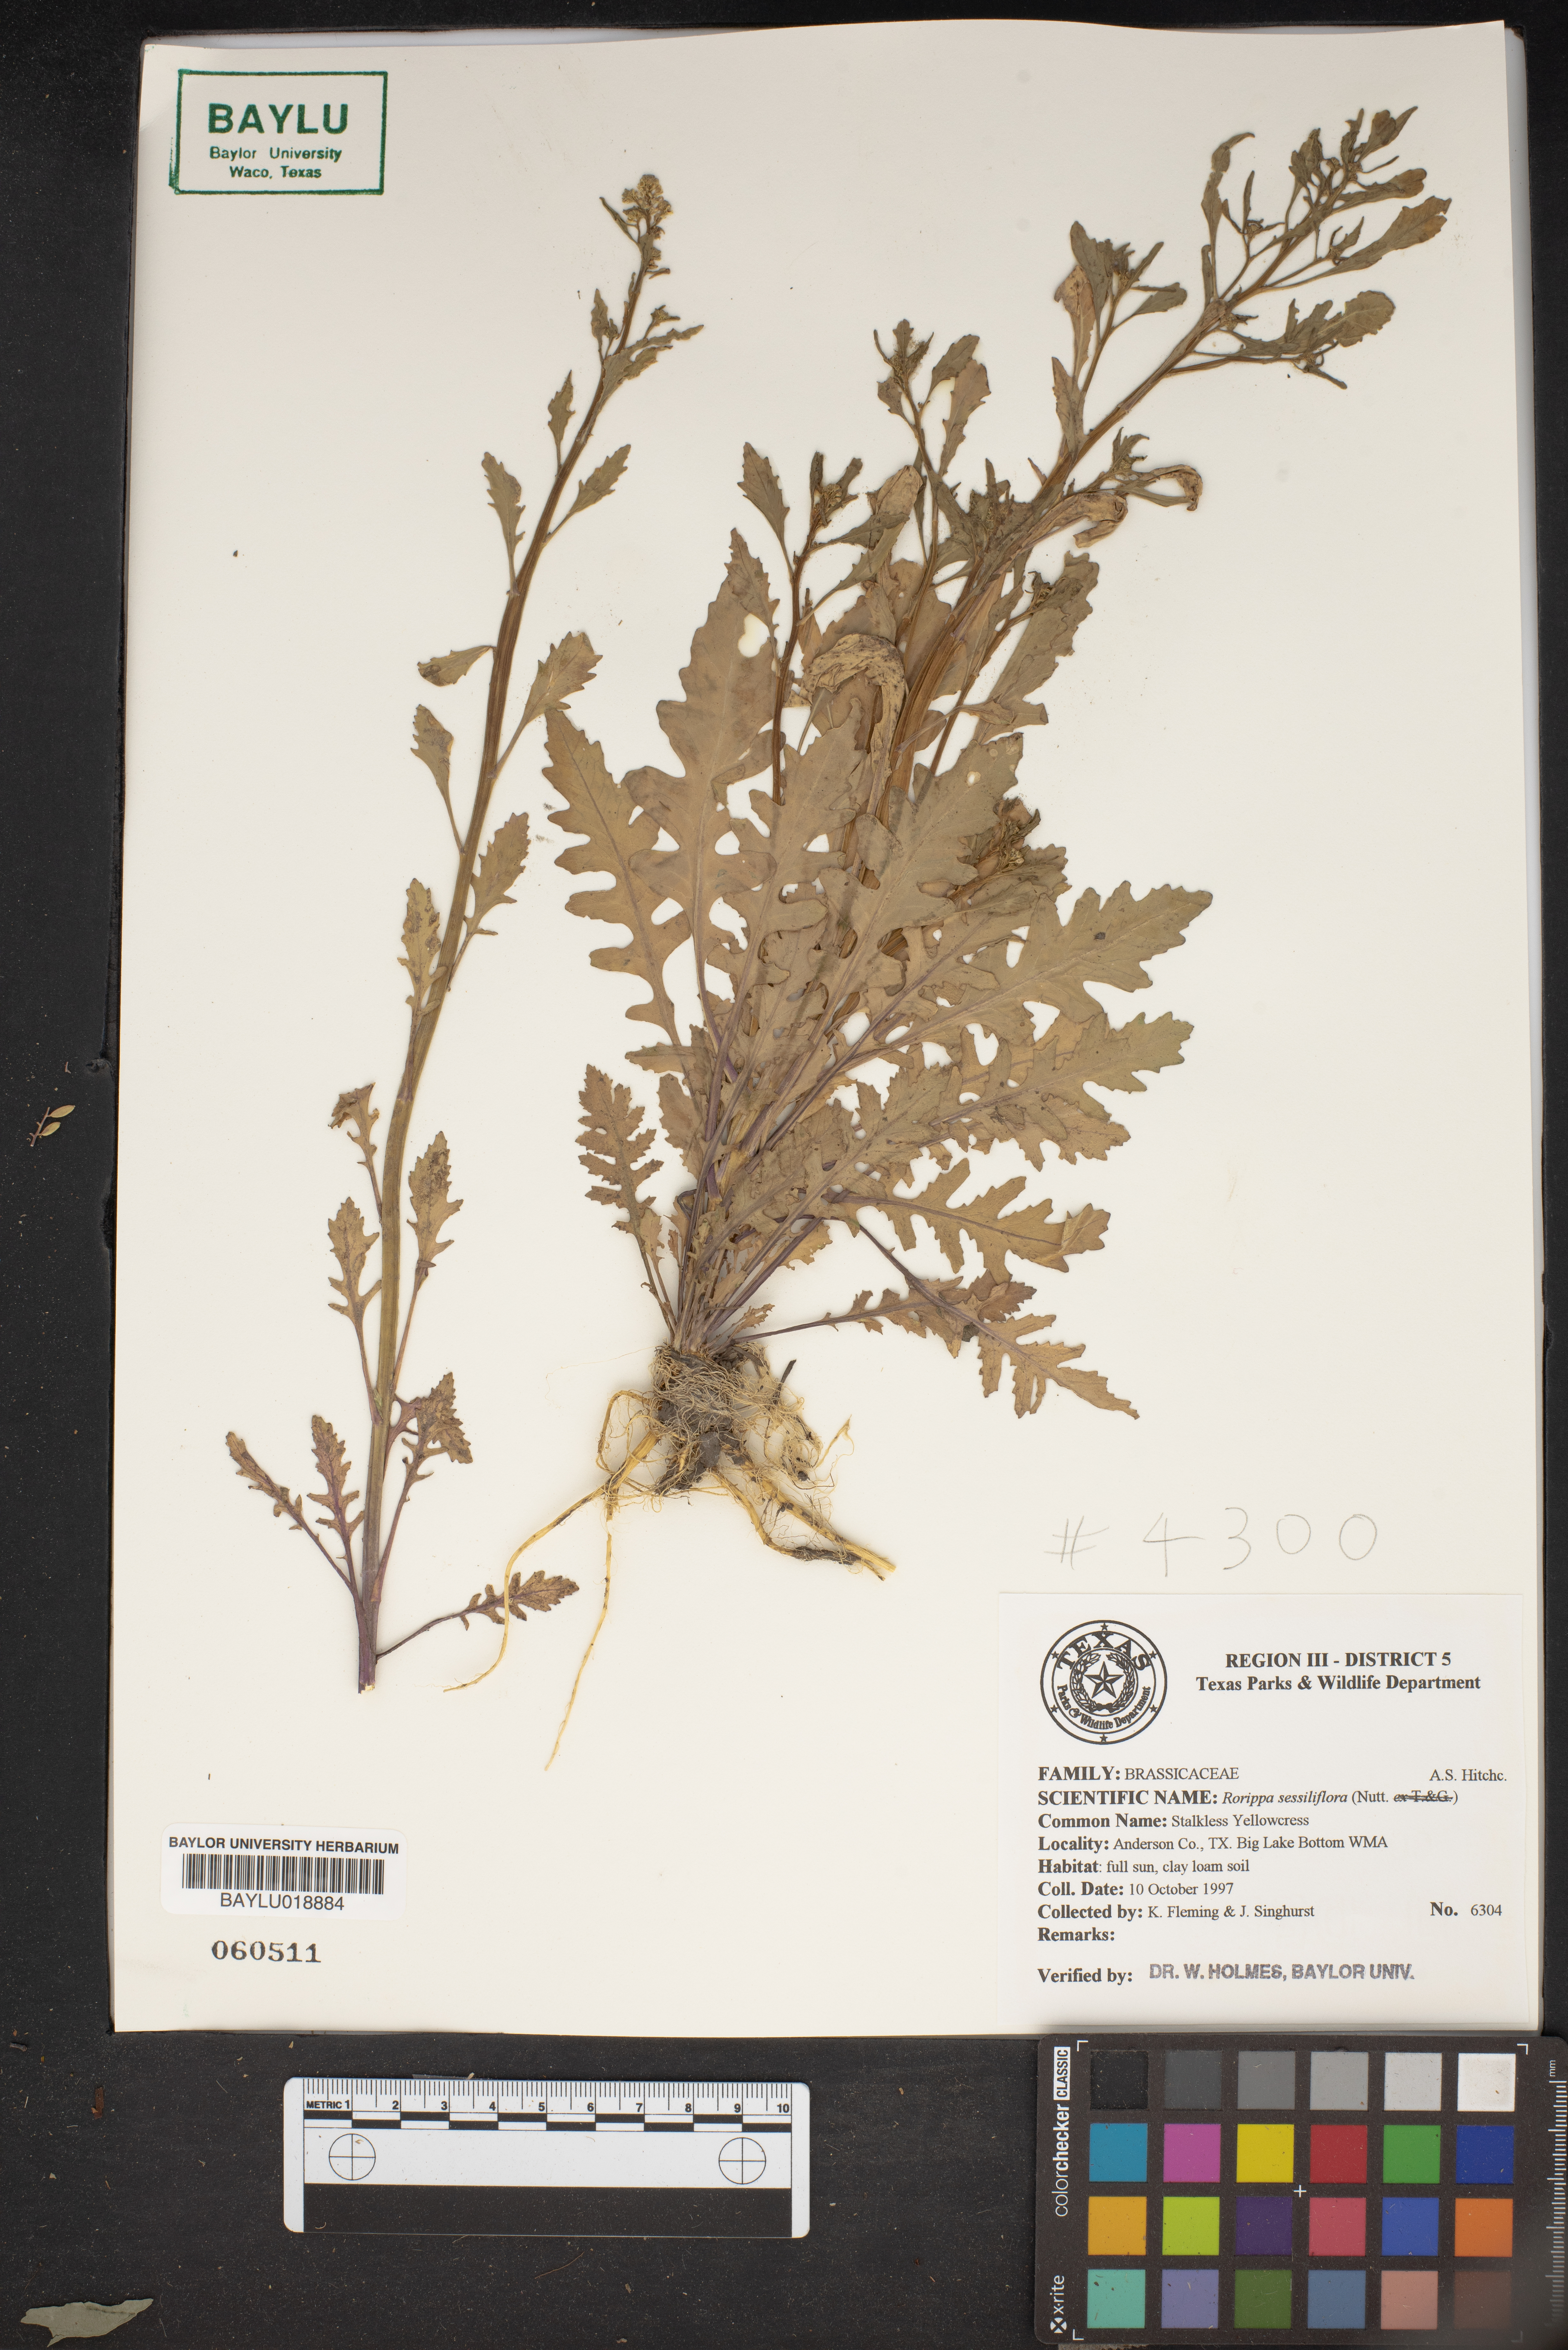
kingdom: Plantae
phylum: Tracheophyta
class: Magnoliopsida
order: Brassicales
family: Brassicaceae
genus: Rorippa
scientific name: Rorippa sessiliflora
